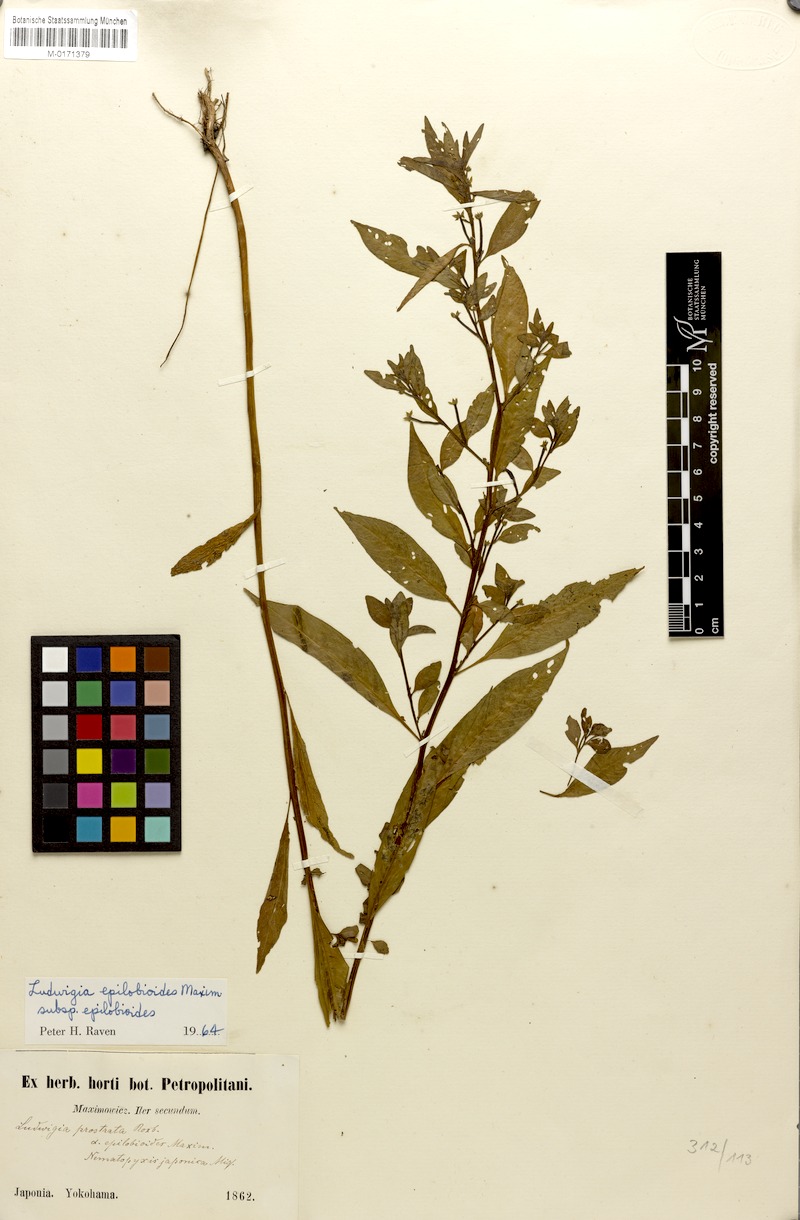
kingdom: Plantae
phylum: Tracheophyta
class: Magnoliopsida
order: Myrtales
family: Onagraceae
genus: Ludwigia
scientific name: Ludwigia epilobioides
